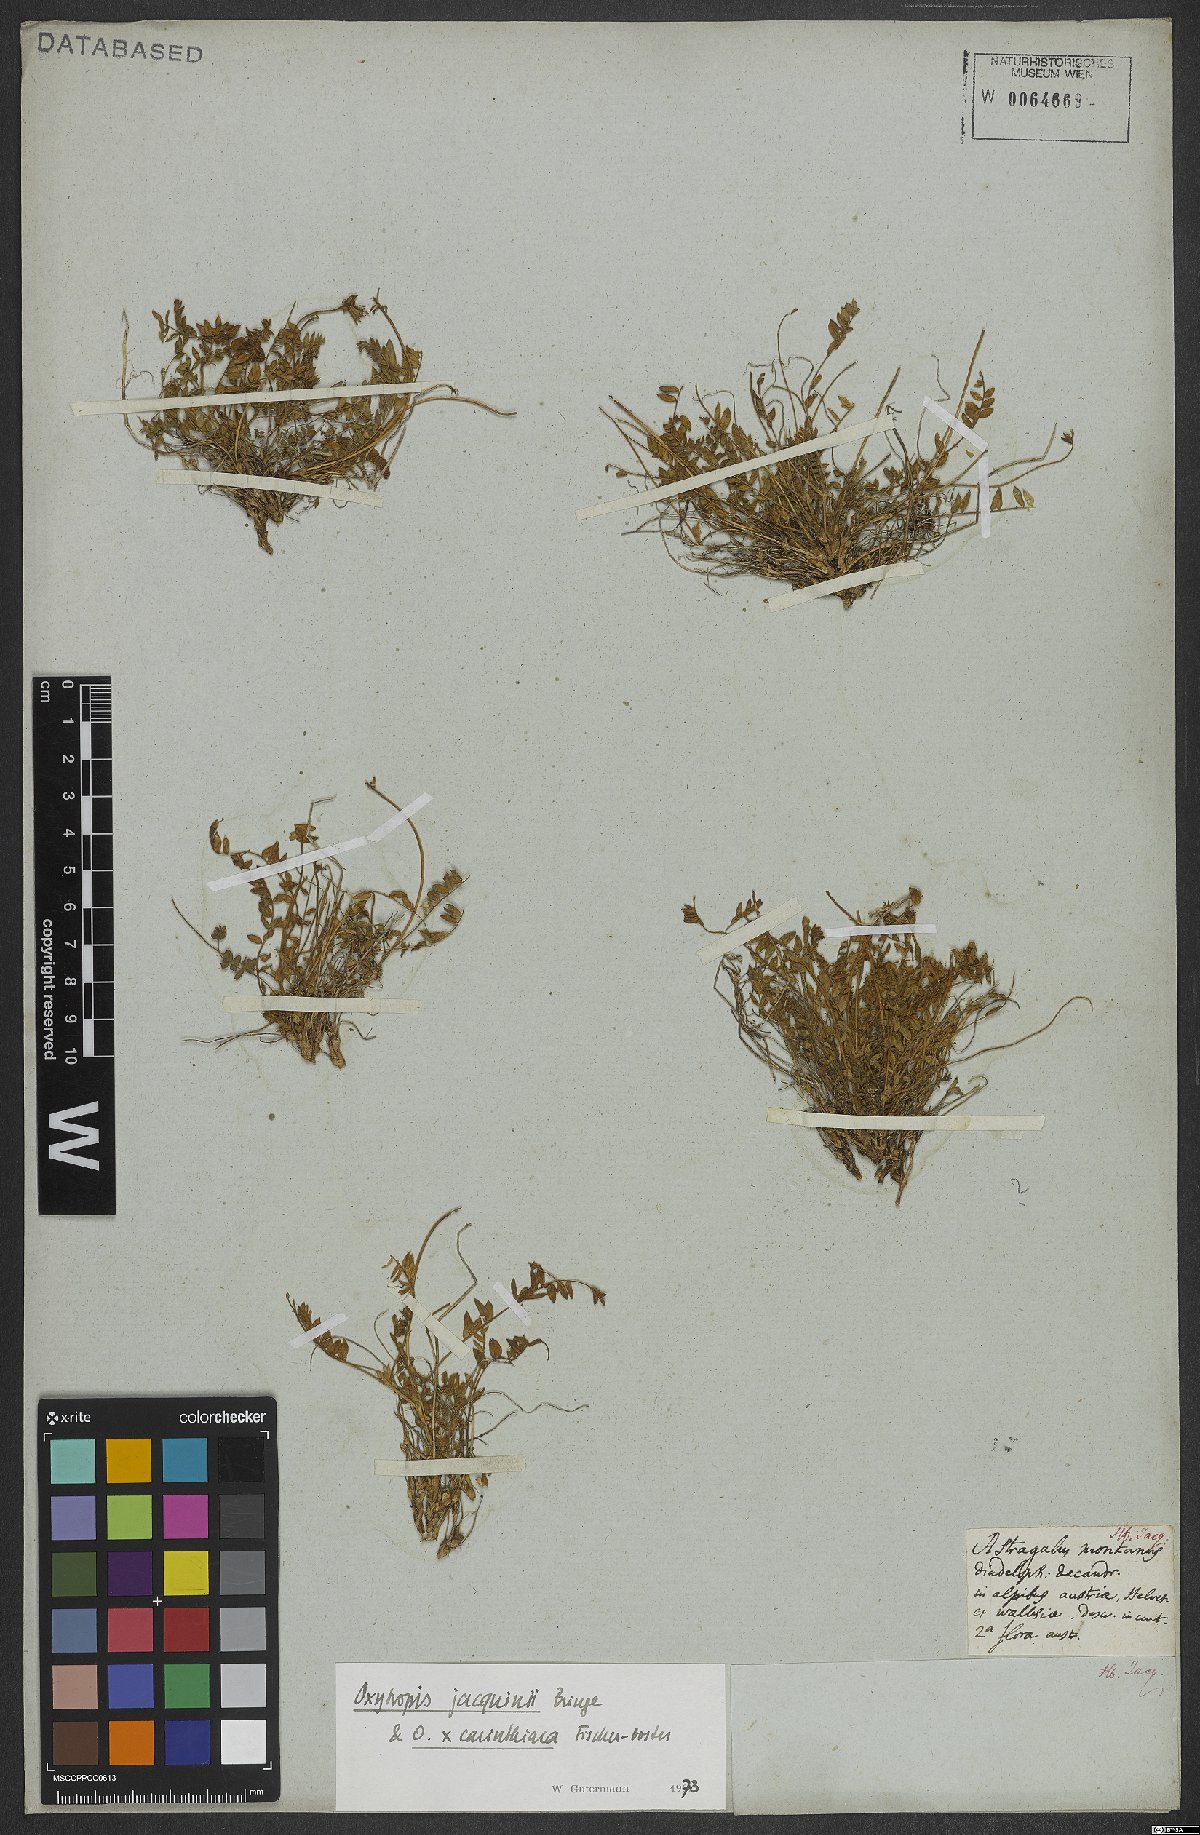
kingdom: Plantae
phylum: Tracheophyta
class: Magnoliopsida
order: Fabales
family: Fabaceae
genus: Oxytropis
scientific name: Oxytropis montana
